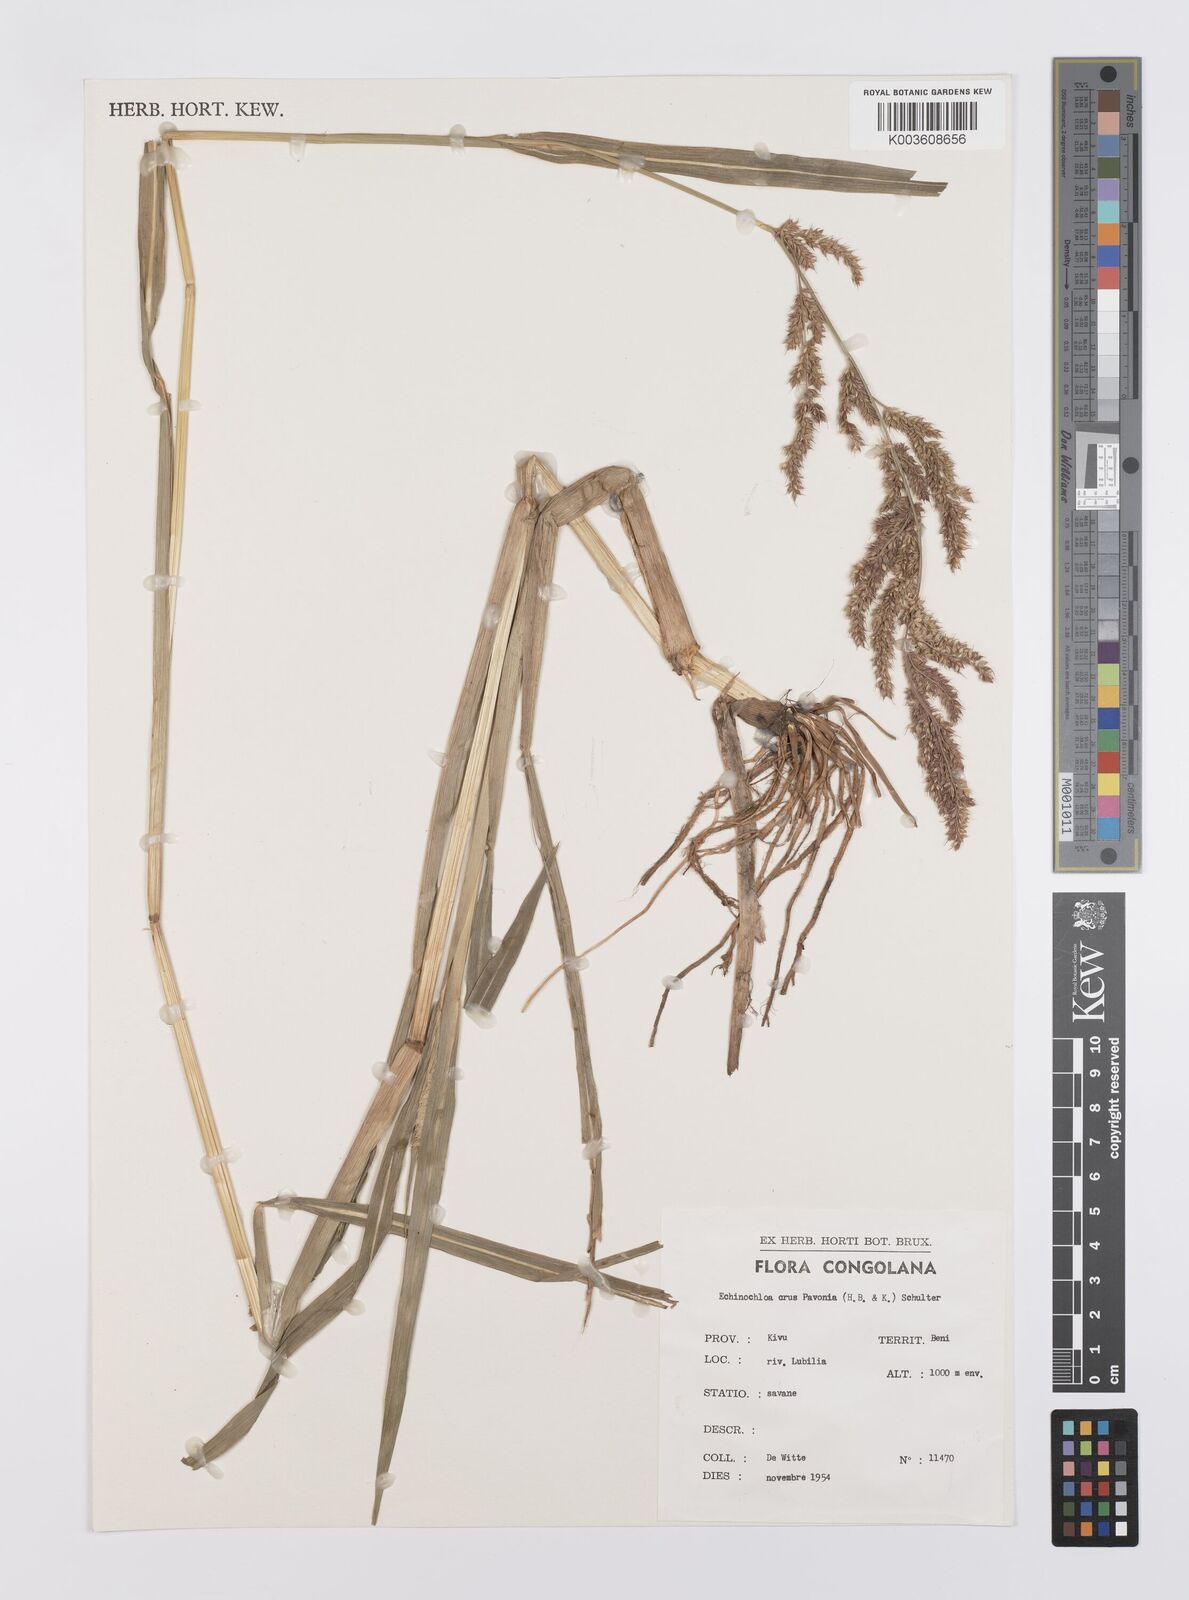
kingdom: Plantae
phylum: Tracheophyta
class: Liliopsida
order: Poales
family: Poaceae
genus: Echinochloa
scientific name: Echinochloa crus-pavonis
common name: Gulf cockspur grass
